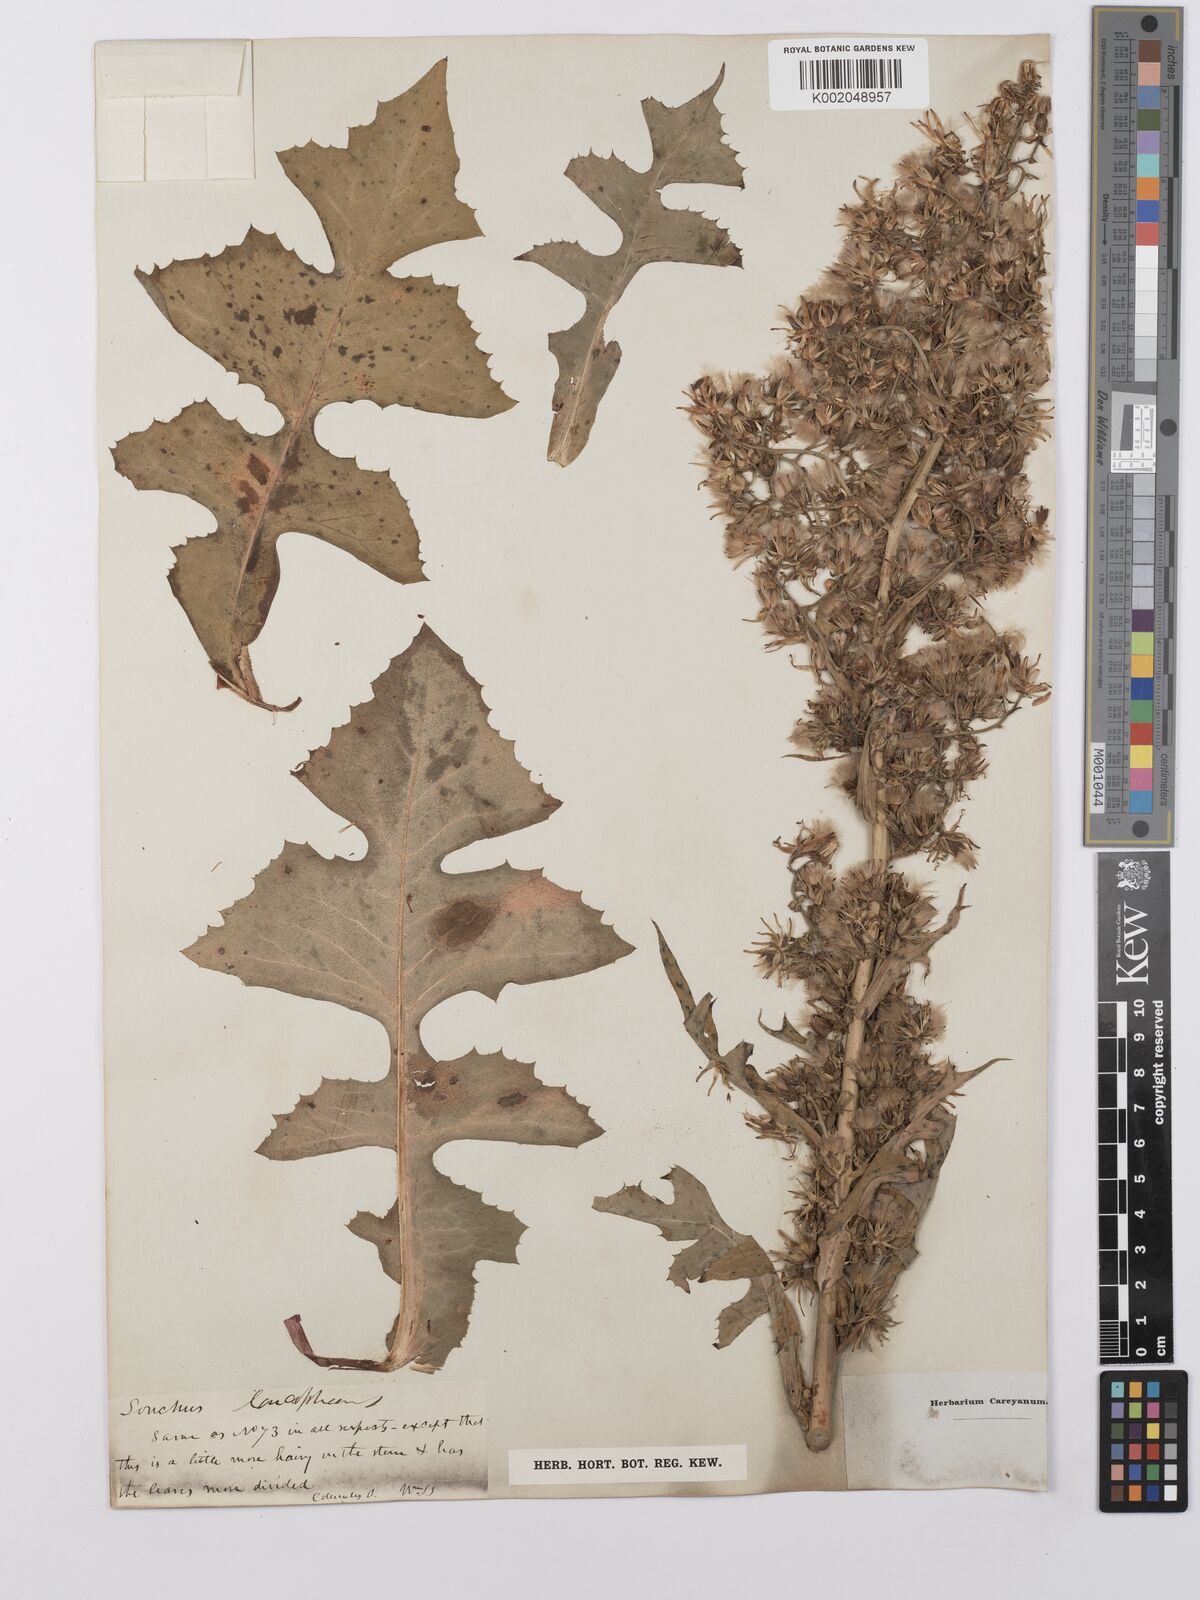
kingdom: Plantae
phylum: Tracheophyta
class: Magnoliopsida
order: Asterales
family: Asteraceae
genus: Lactuca
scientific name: Lactuca
